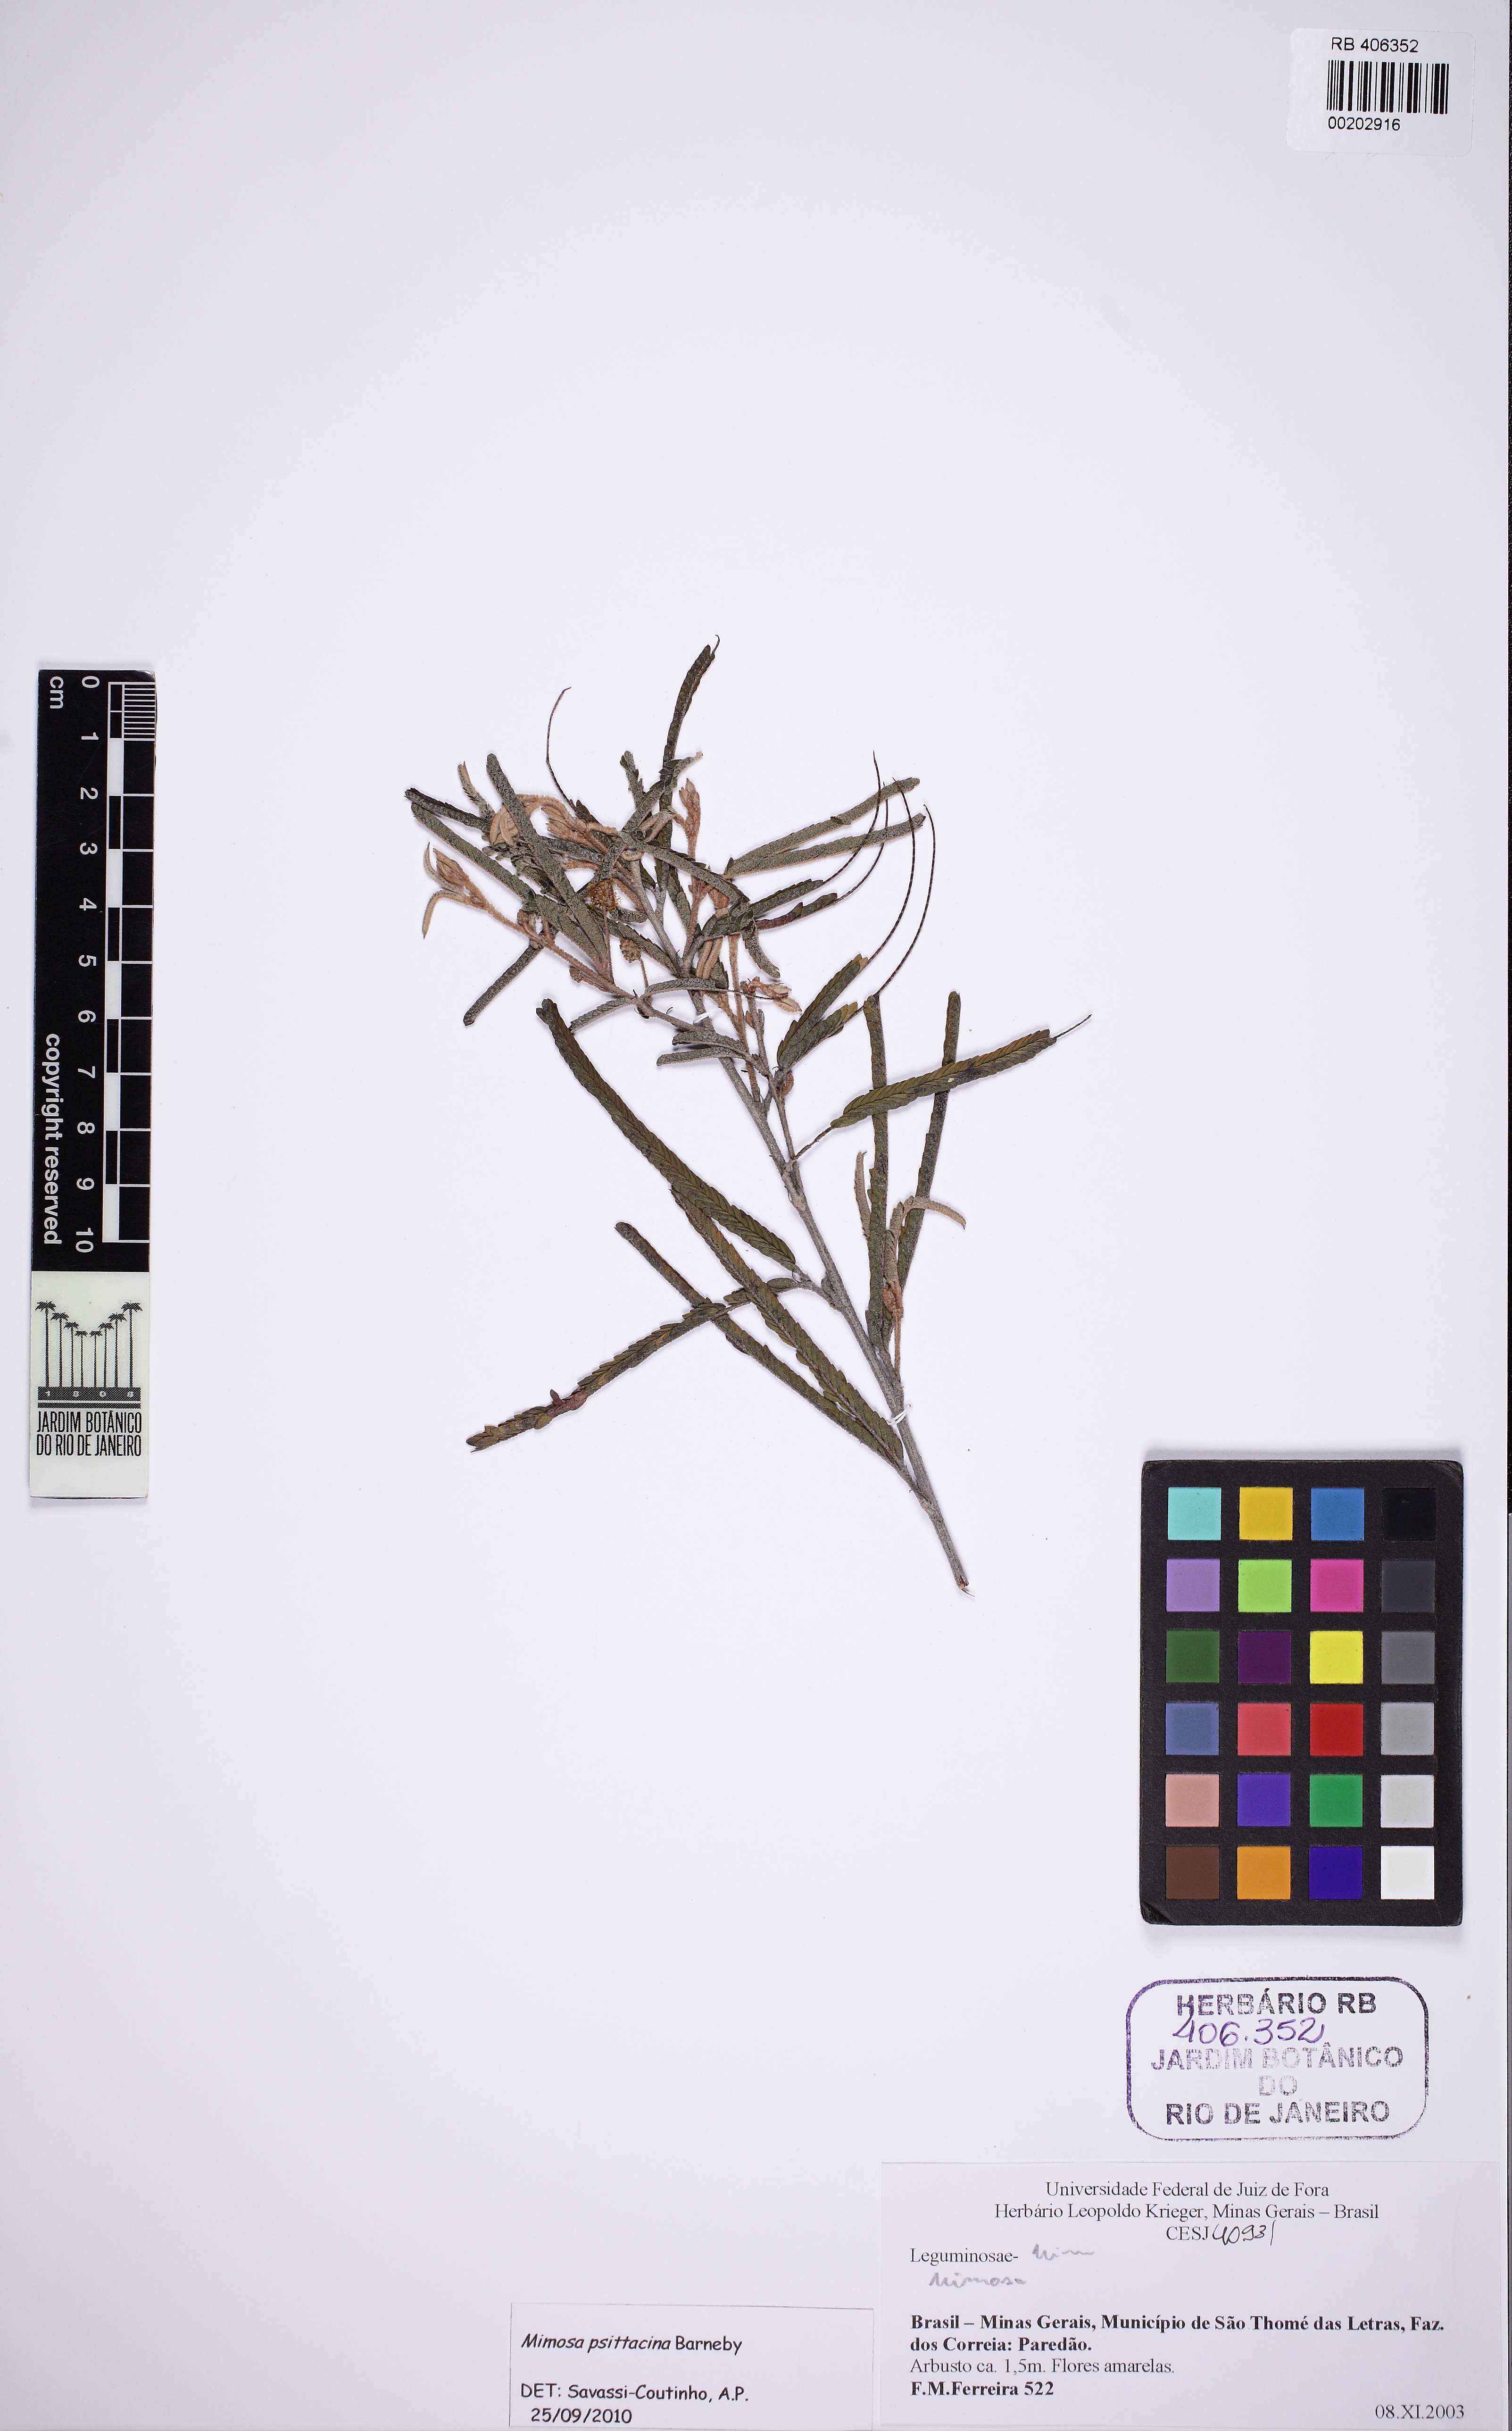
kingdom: Plantae
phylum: Tracheophyta
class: Magnoliopsida
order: Fabales
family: Fabaceae
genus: Mimosa
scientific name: Mimosa psittacina
